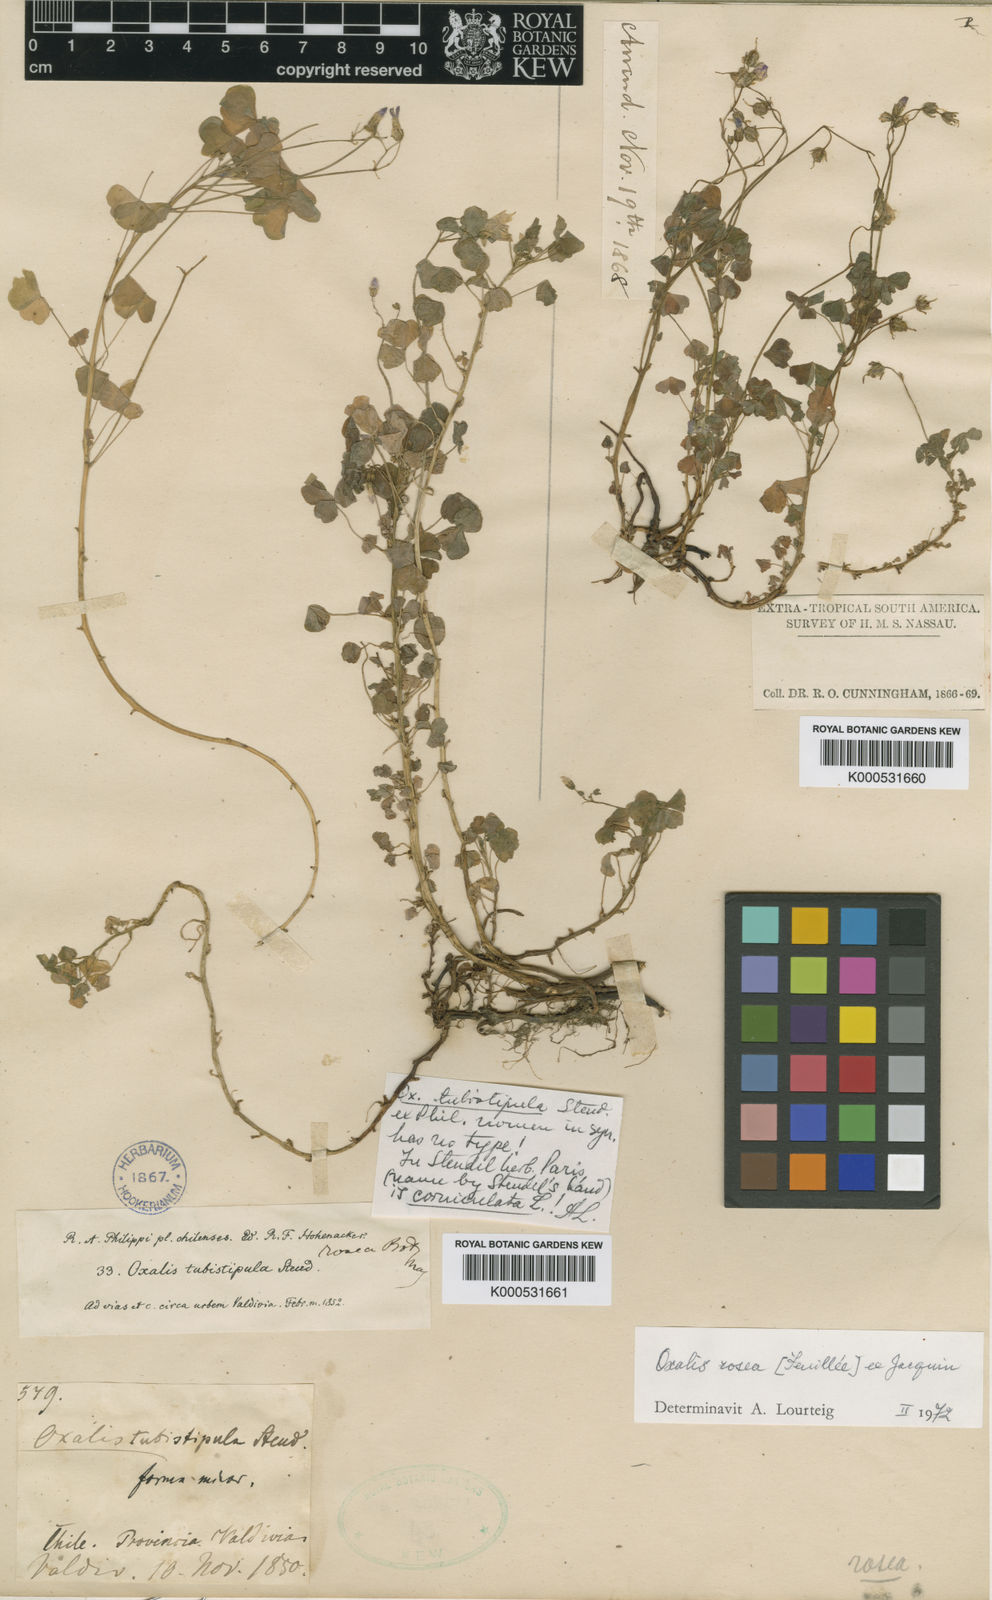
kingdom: Plantae
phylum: Tracheophyta
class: Magnoliopsida
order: Oxalidales
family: Oxalidaceae
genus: Oxalis
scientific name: Oxalis
